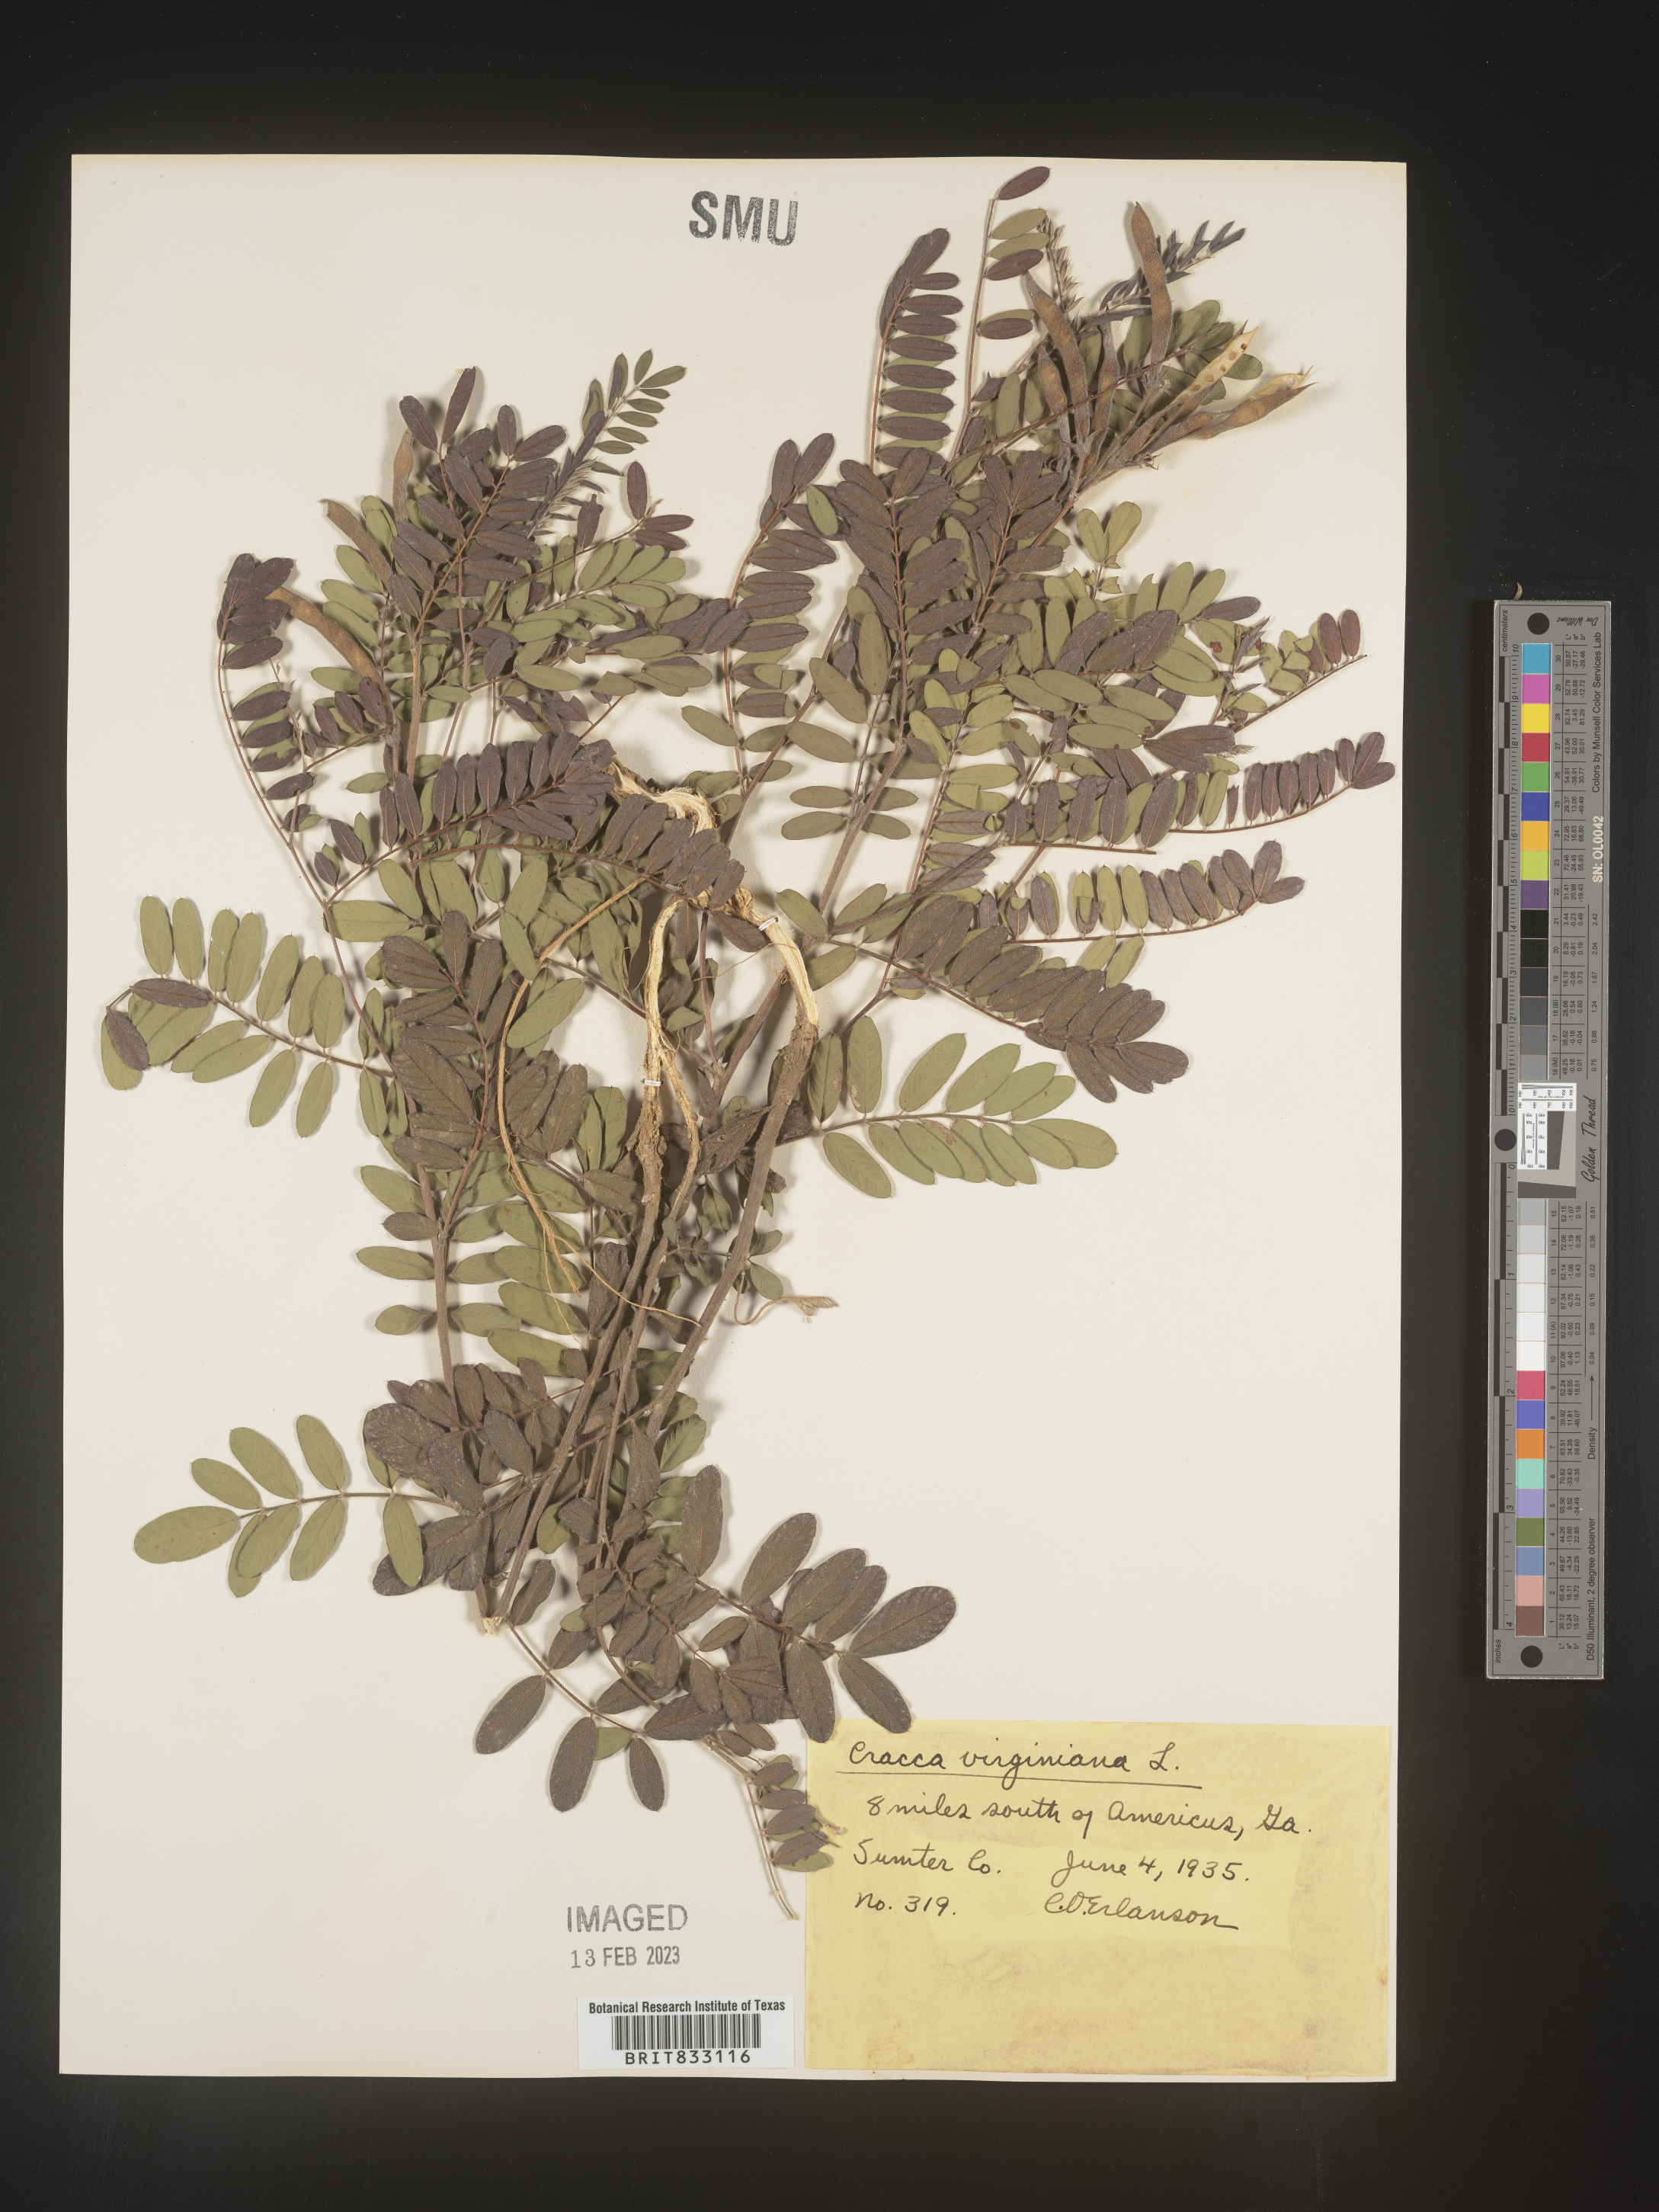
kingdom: Plantae
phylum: Tracheophyta
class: Magnoliopsida
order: Fabales
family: Fabaceae
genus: Tephrosia
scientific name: Tephrosia virginiana
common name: Rabbit-pea
